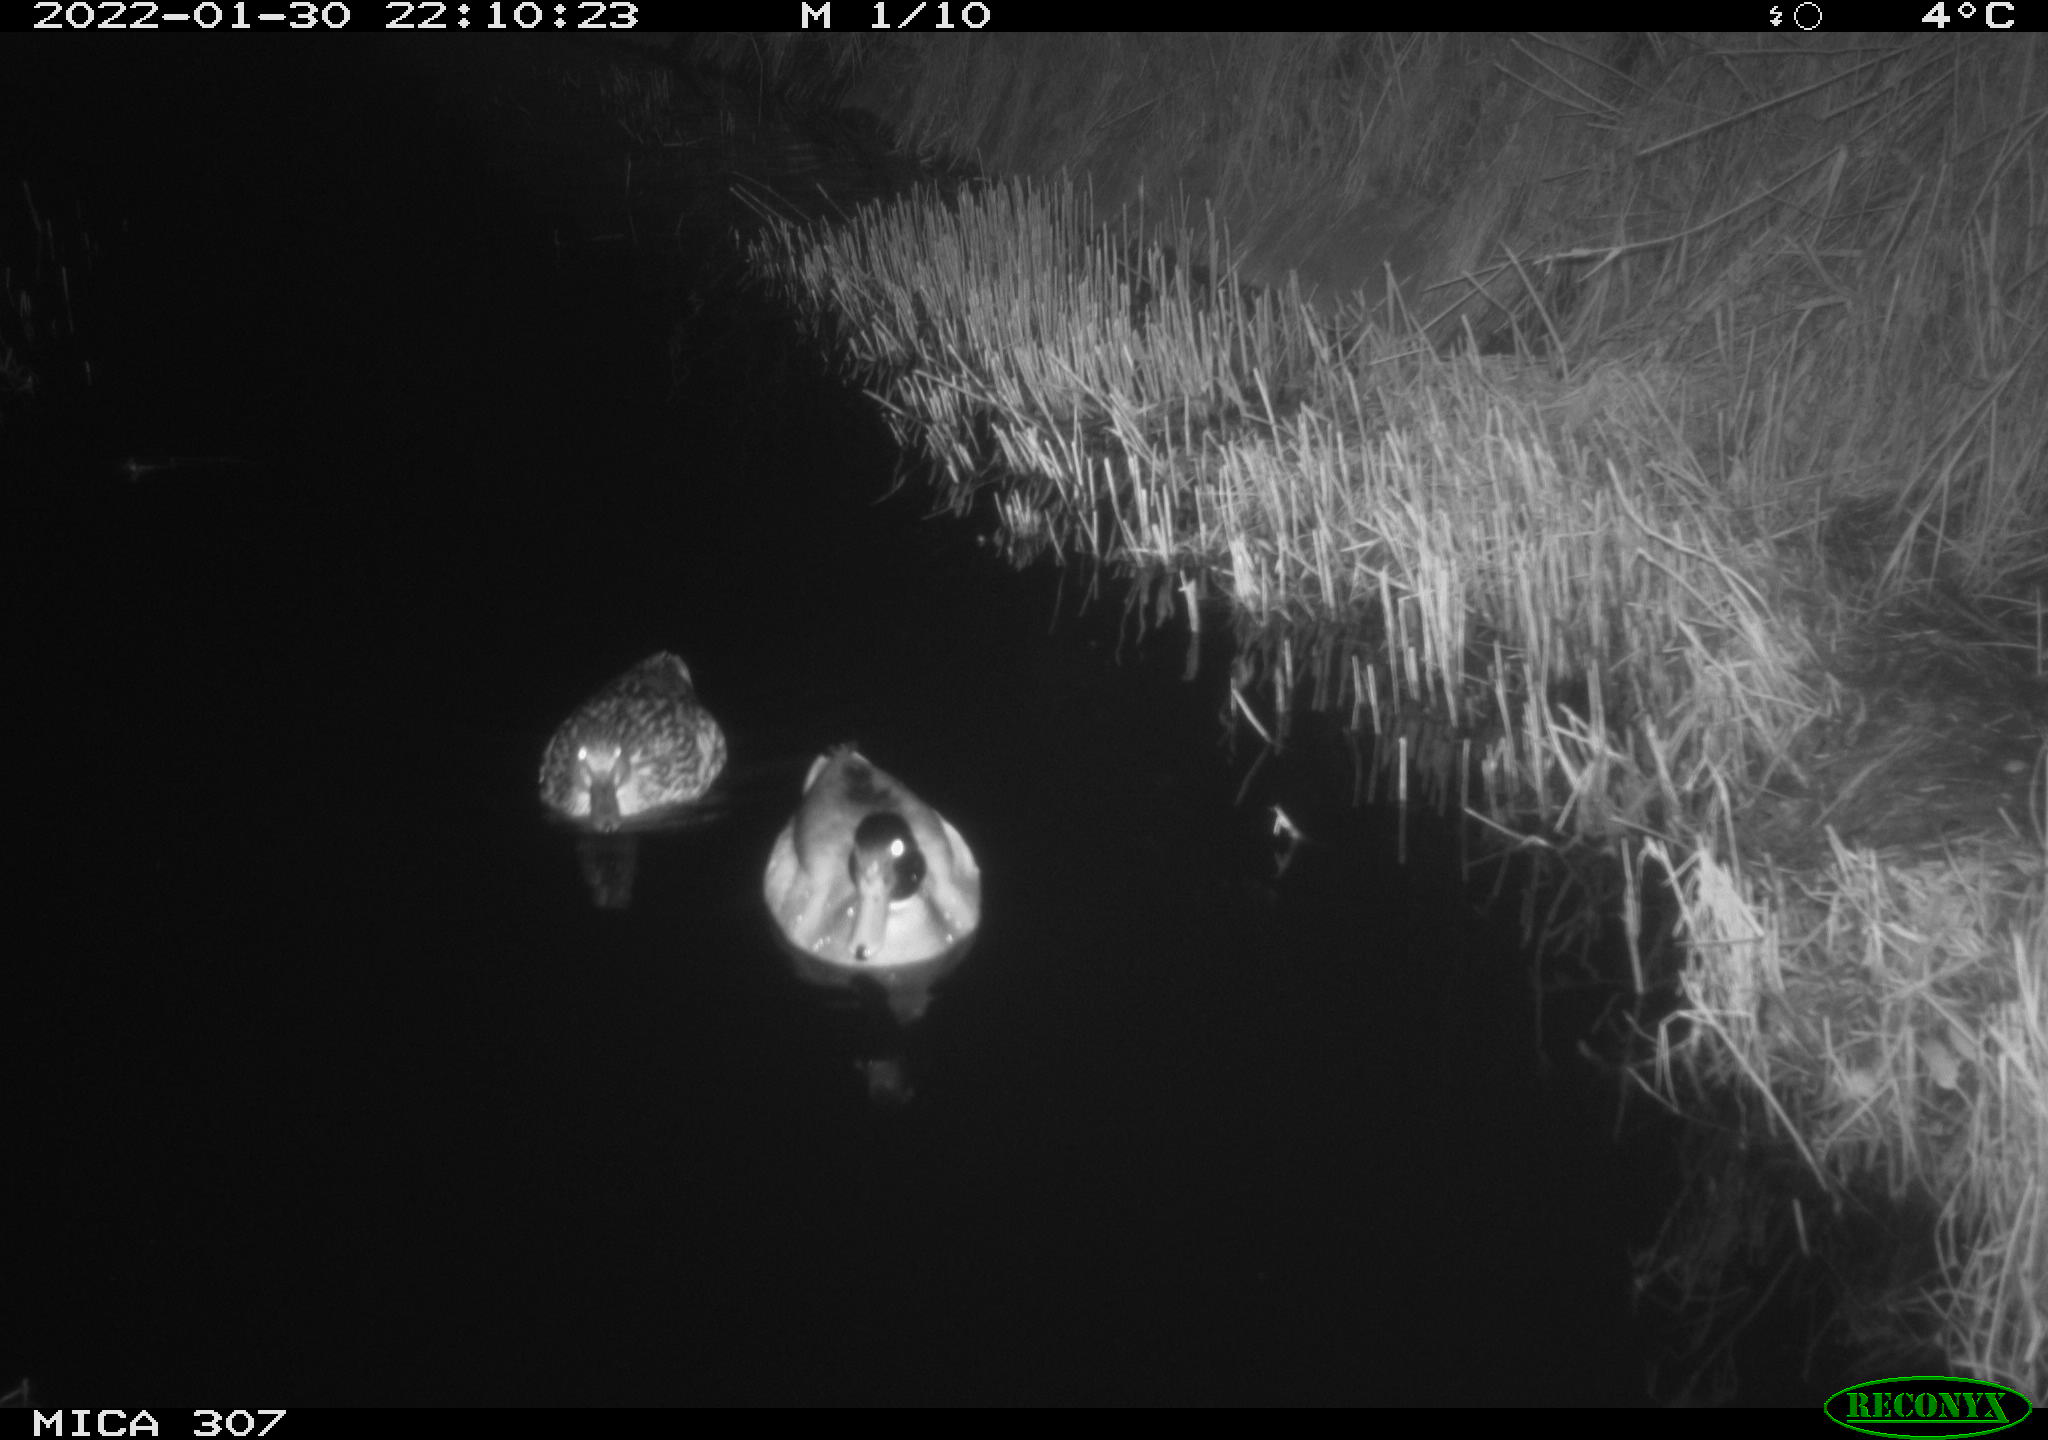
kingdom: Animalia
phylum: Chordata
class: Aves
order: Anseriformes
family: Anatidae
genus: Anas
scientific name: Anas
